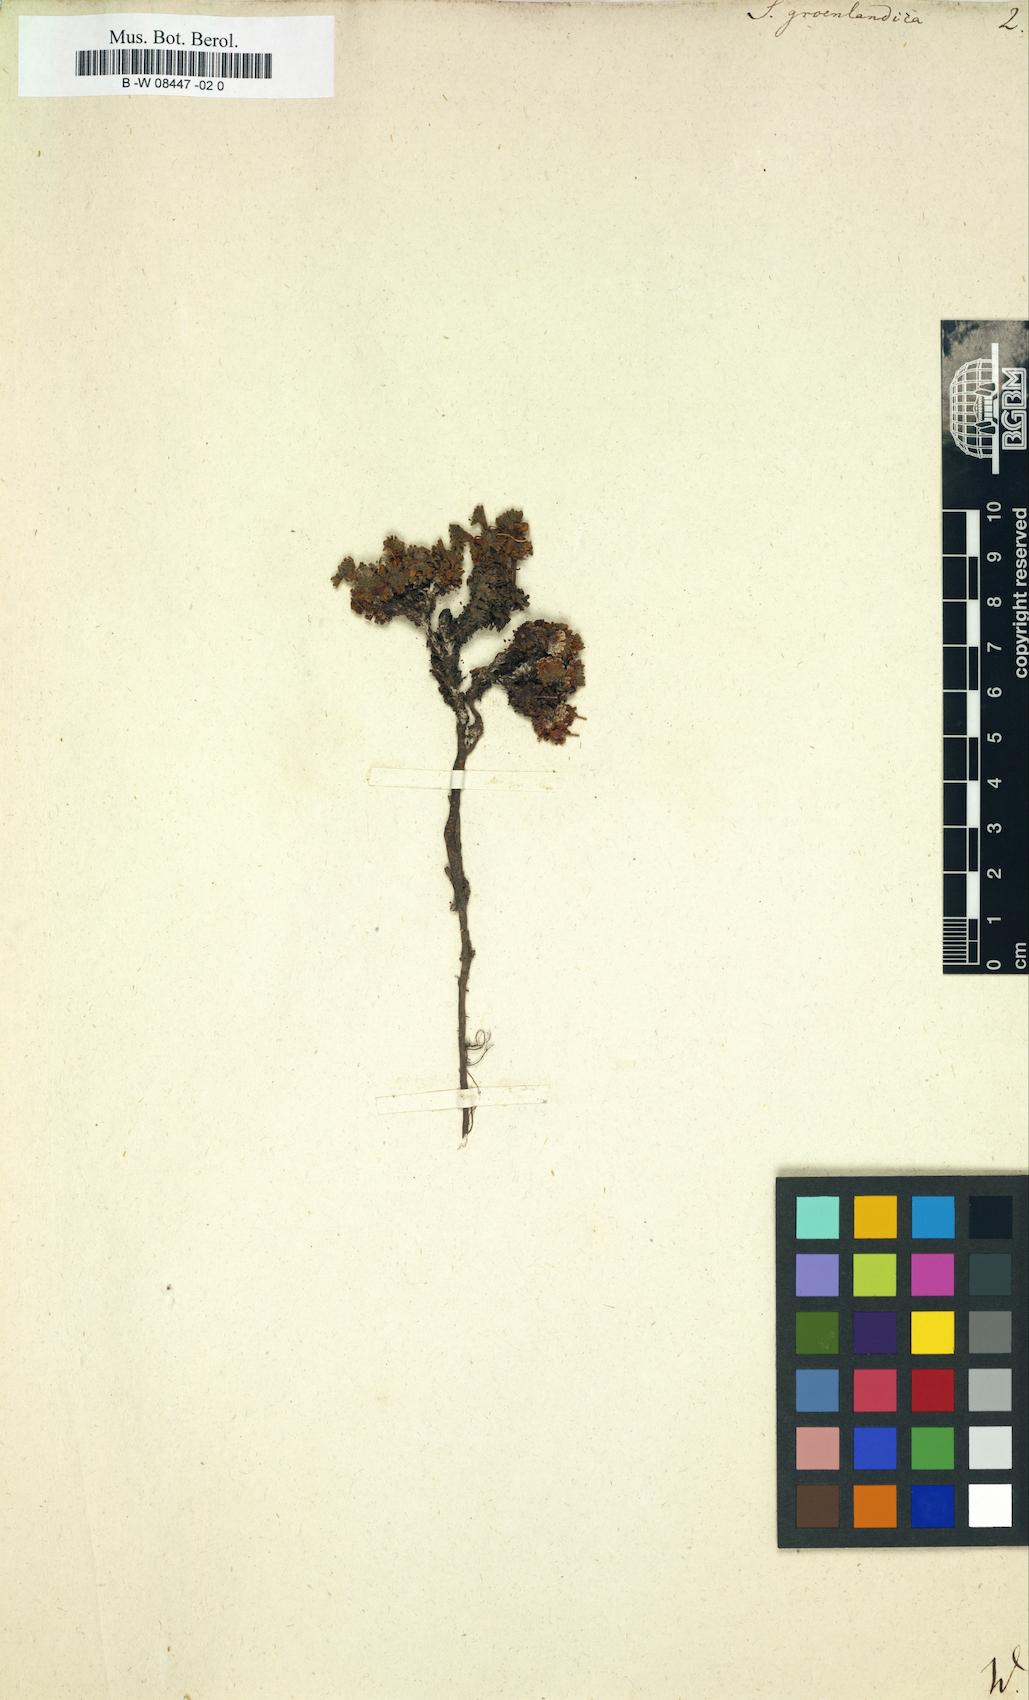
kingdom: Plantae
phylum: Tracheophyta
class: Magnoliopsida
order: Saxifragales
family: Saxifragaceae
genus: Saxifraga
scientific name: Saxifraga
